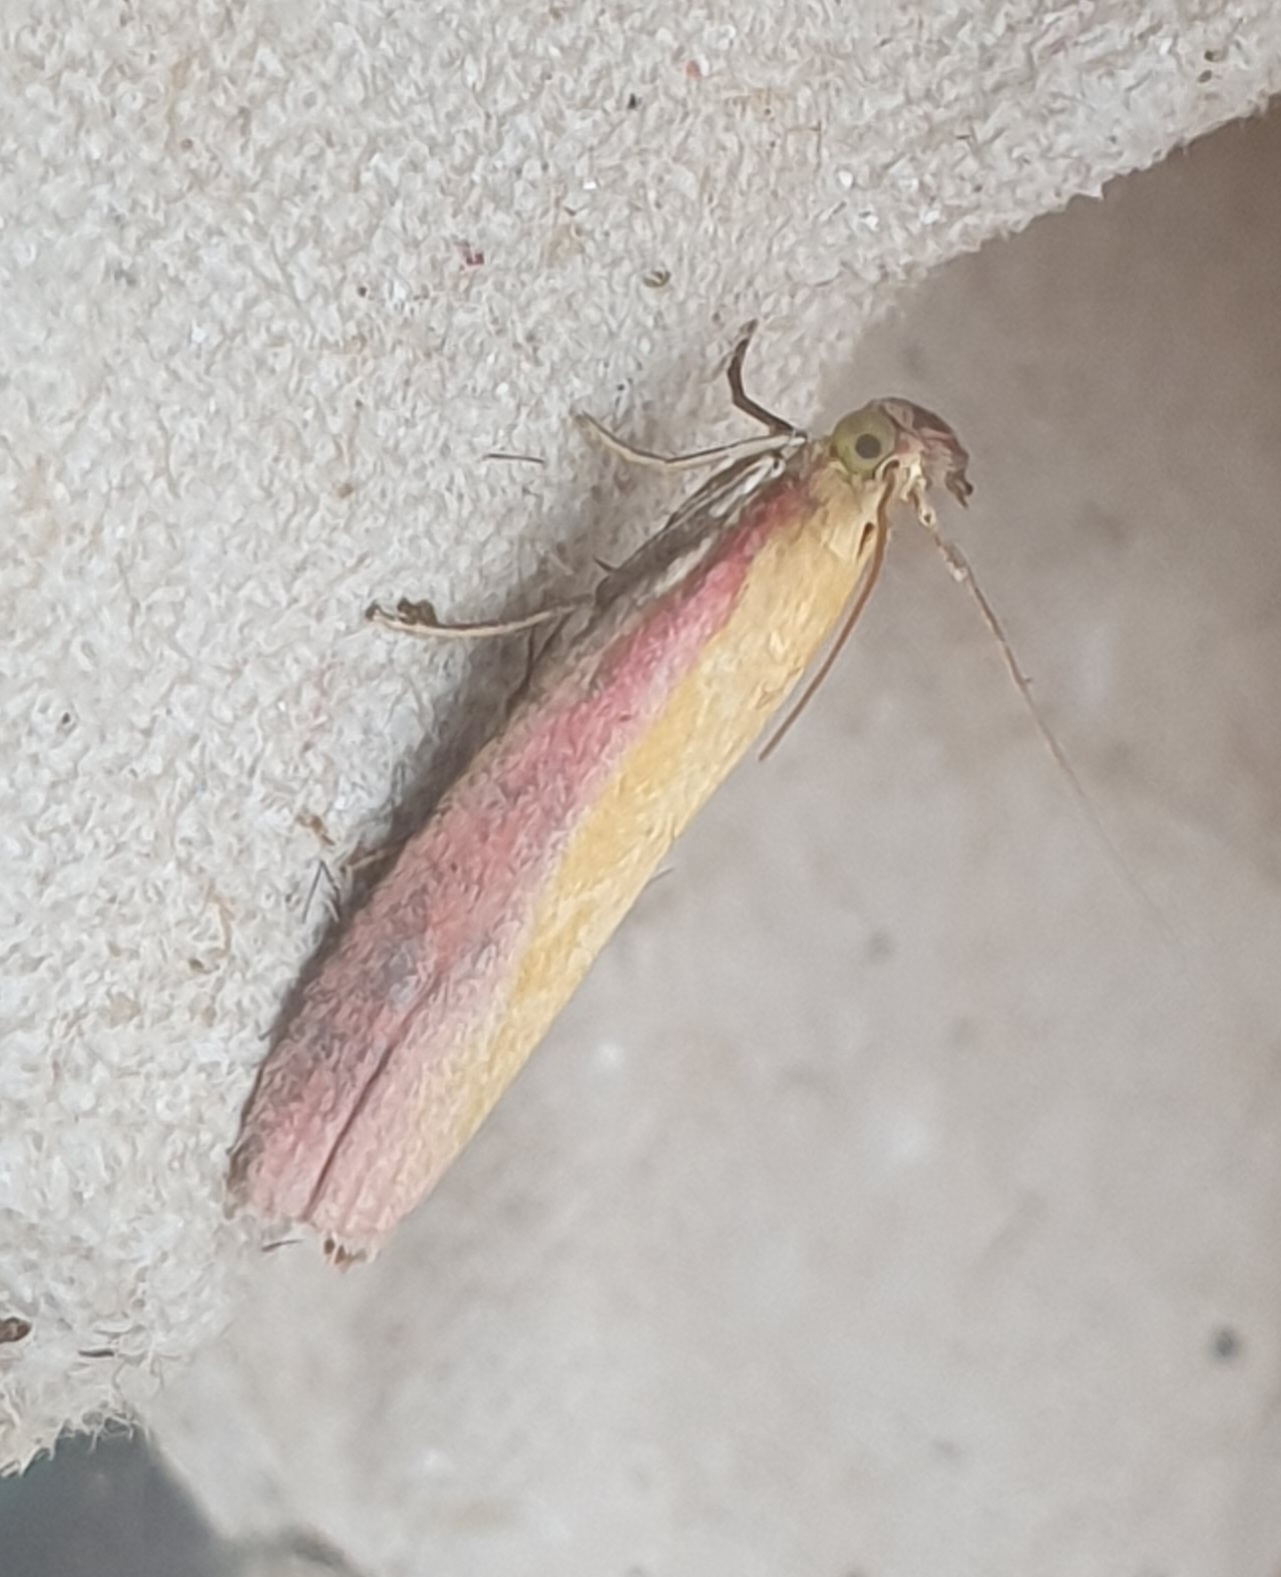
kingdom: Animalia
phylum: Arthropoda
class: Insecta
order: Lepidoptera
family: Pyralidae
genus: Oncocera
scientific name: Oncocera semirubella
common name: Kællingetandhalvmøl
